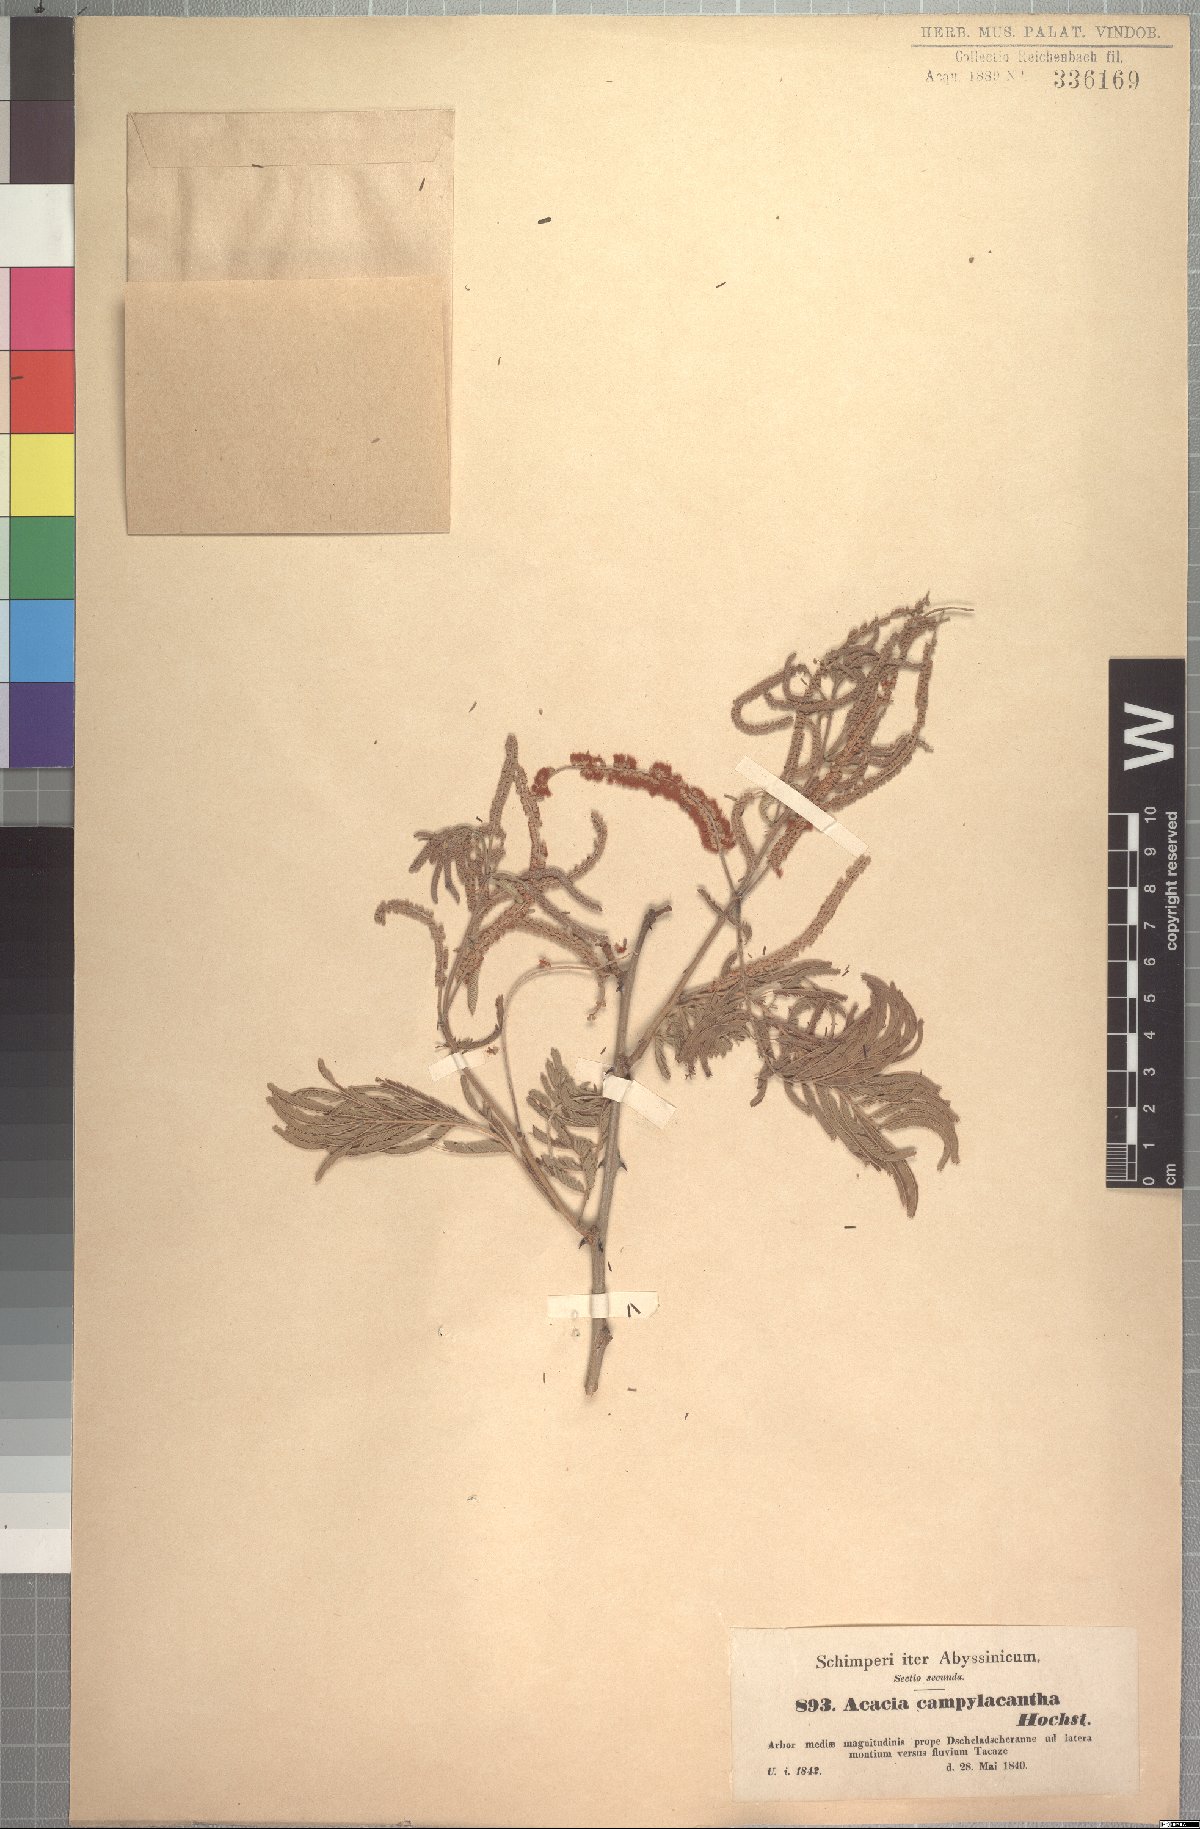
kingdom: Plantae
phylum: Tracheophyta
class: Magnoliopsida
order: Fabales
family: Fabaceae
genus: Senegalia
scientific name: Senegalia polyacantha
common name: Whitethorn
